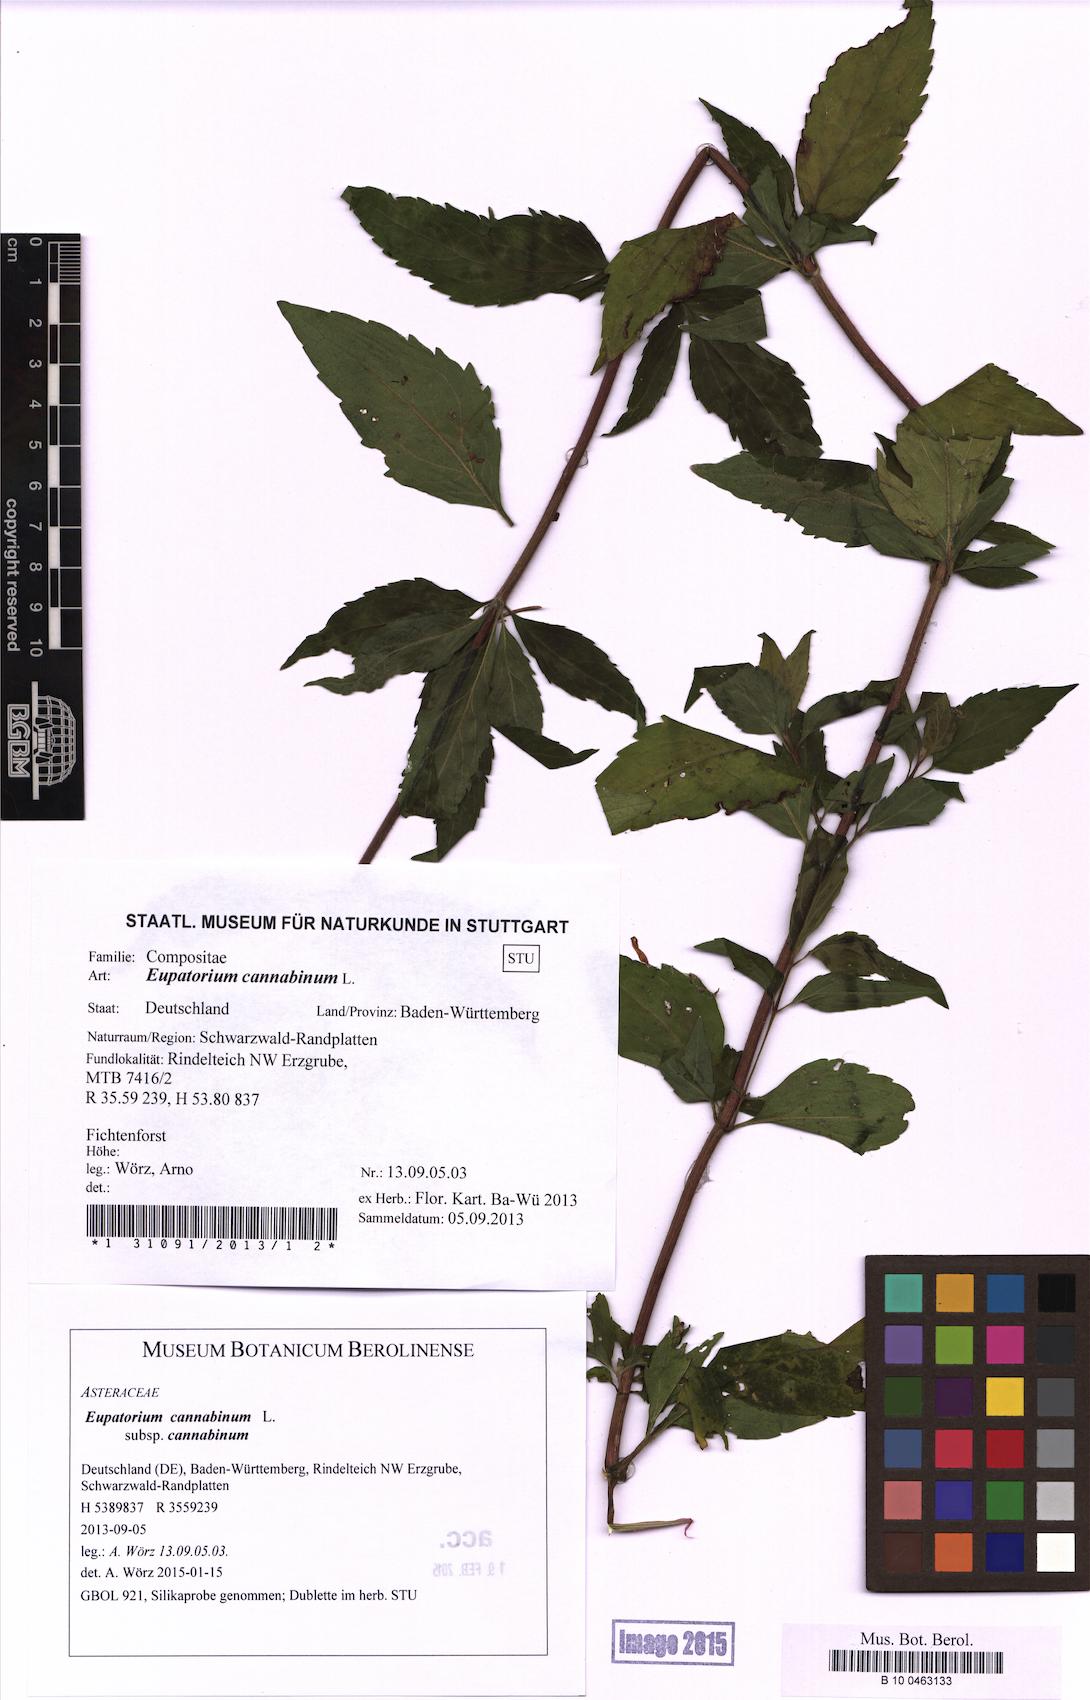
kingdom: Plantae
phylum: Tracheophyta
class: Magnoliopsida
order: Asterales
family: Asteraceae
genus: Eupatorium
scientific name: Eupatorium cannabinum
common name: Hemp-agrimony
